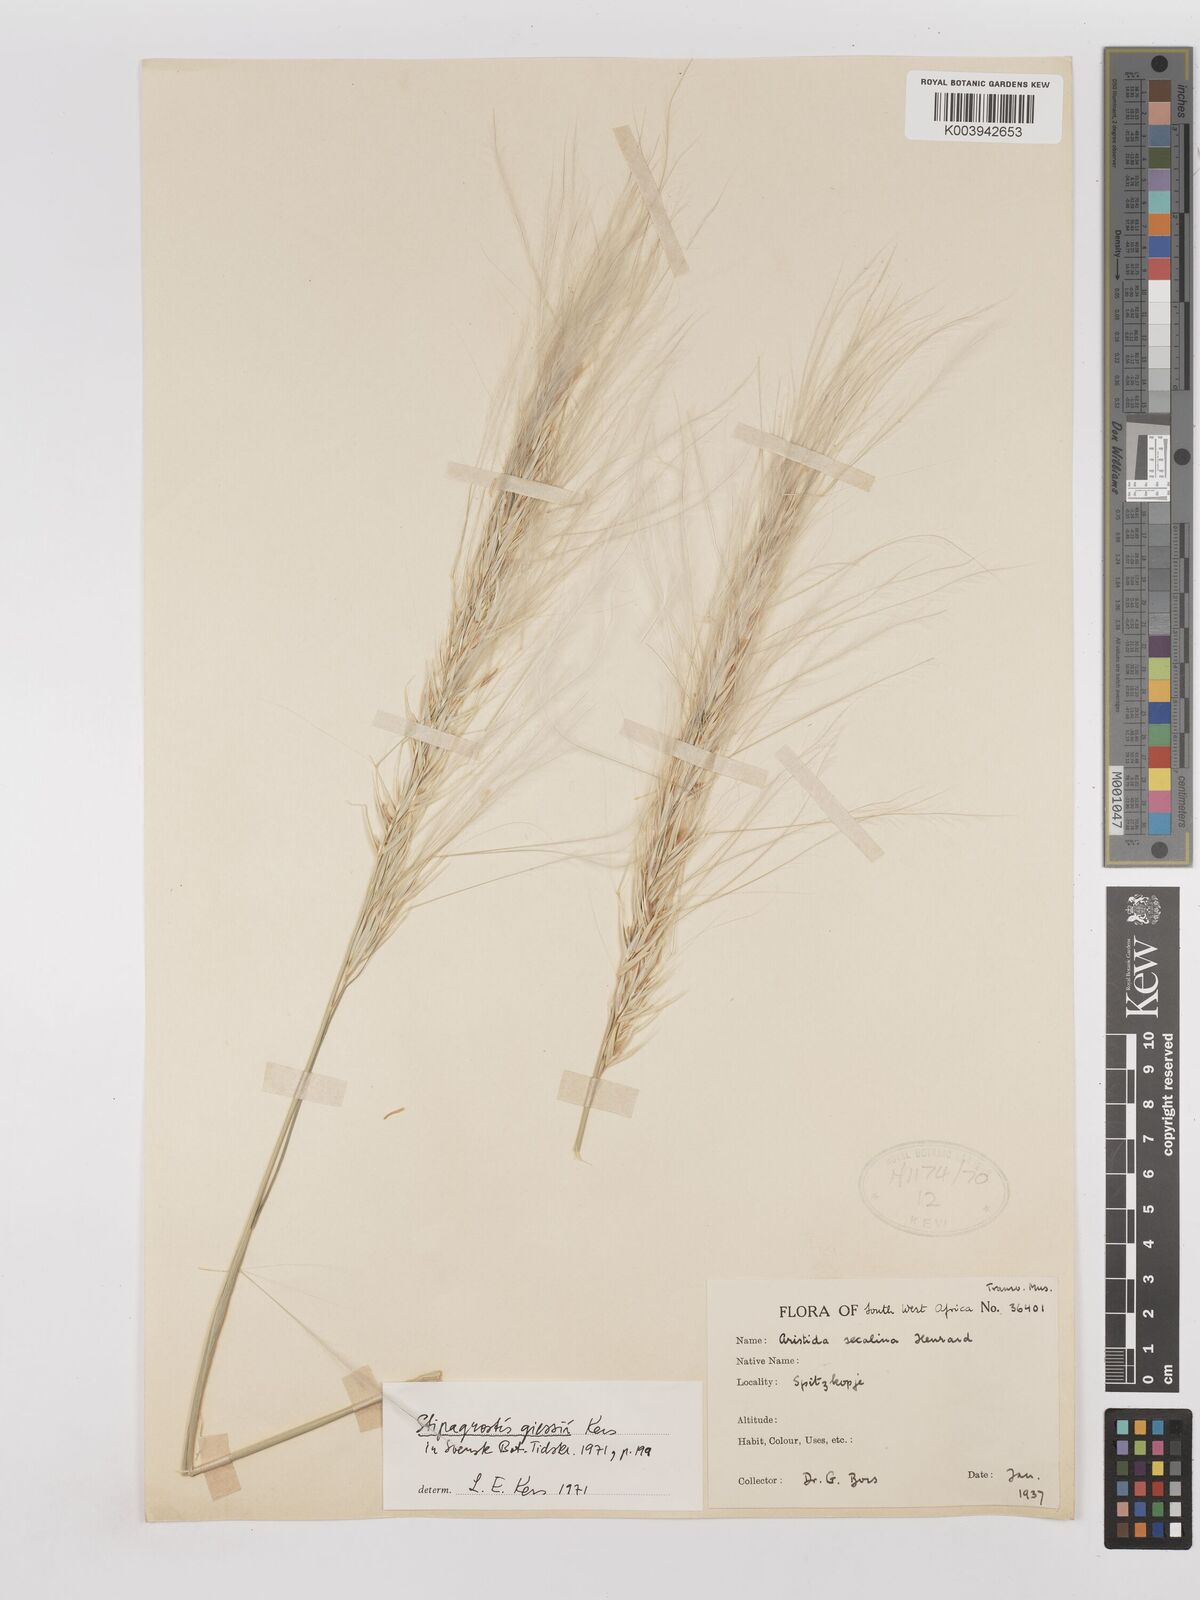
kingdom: Plantae
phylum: Tracheophyta
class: Liliopsida
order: Poales
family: Poaceae
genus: Stipagrostis
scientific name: Stipagrostis giessii
